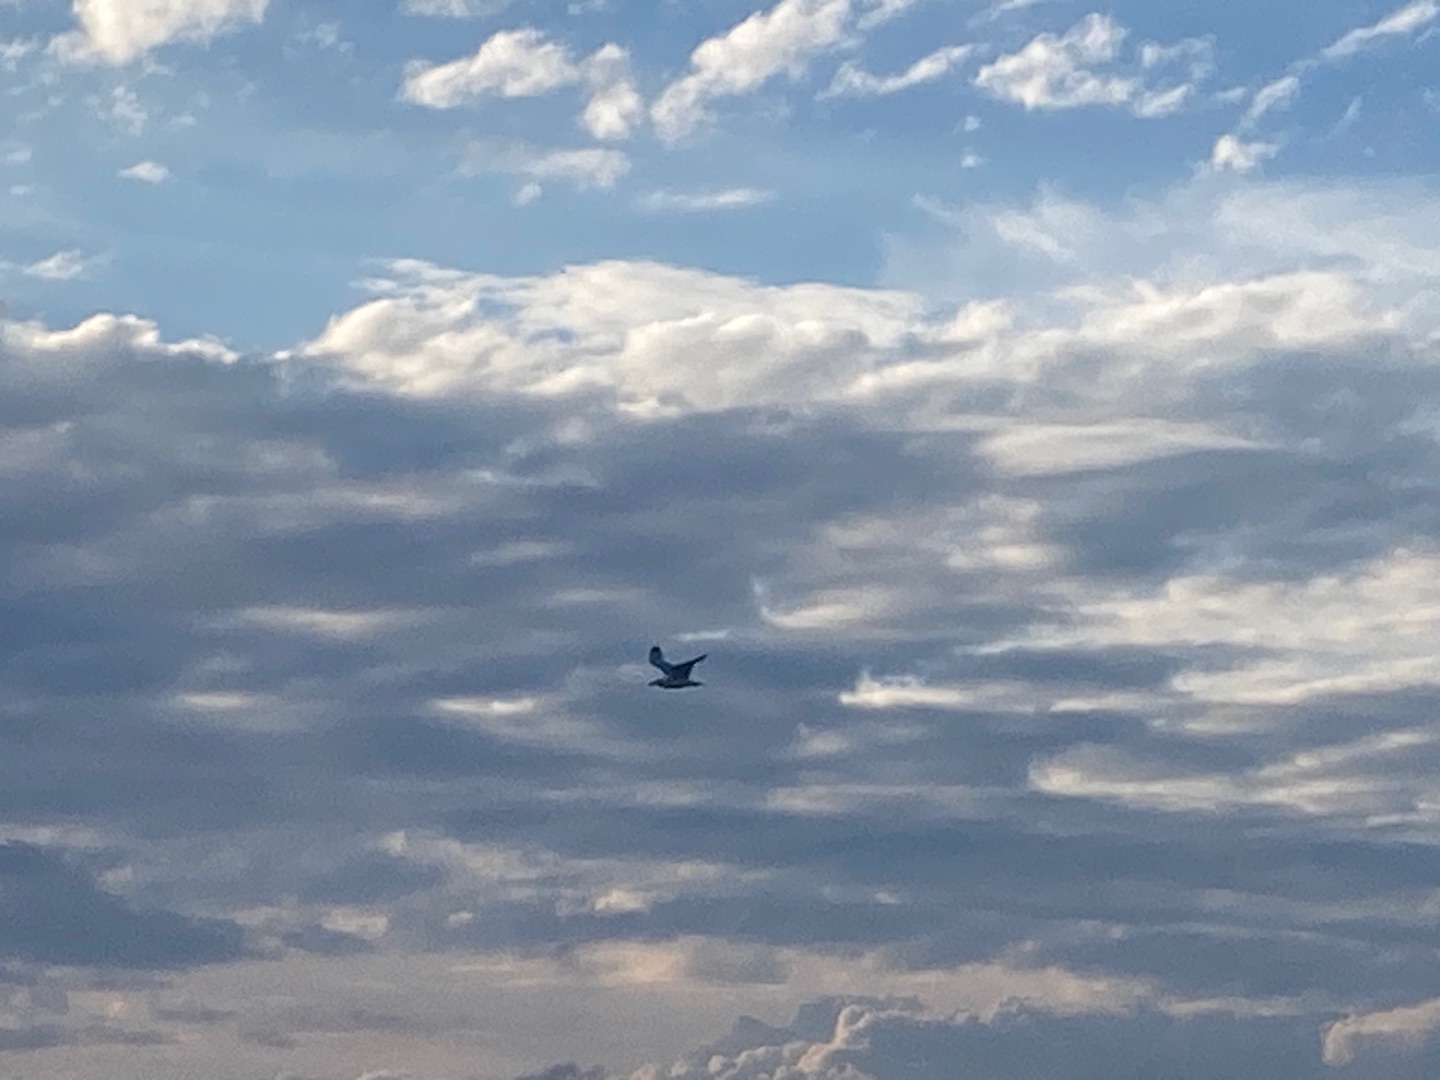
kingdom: Animalia
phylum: Chordata
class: Aves
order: Charadriiformes
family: Laridae
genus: Larus
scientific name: Larus argentatus
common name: Sølvmåge
